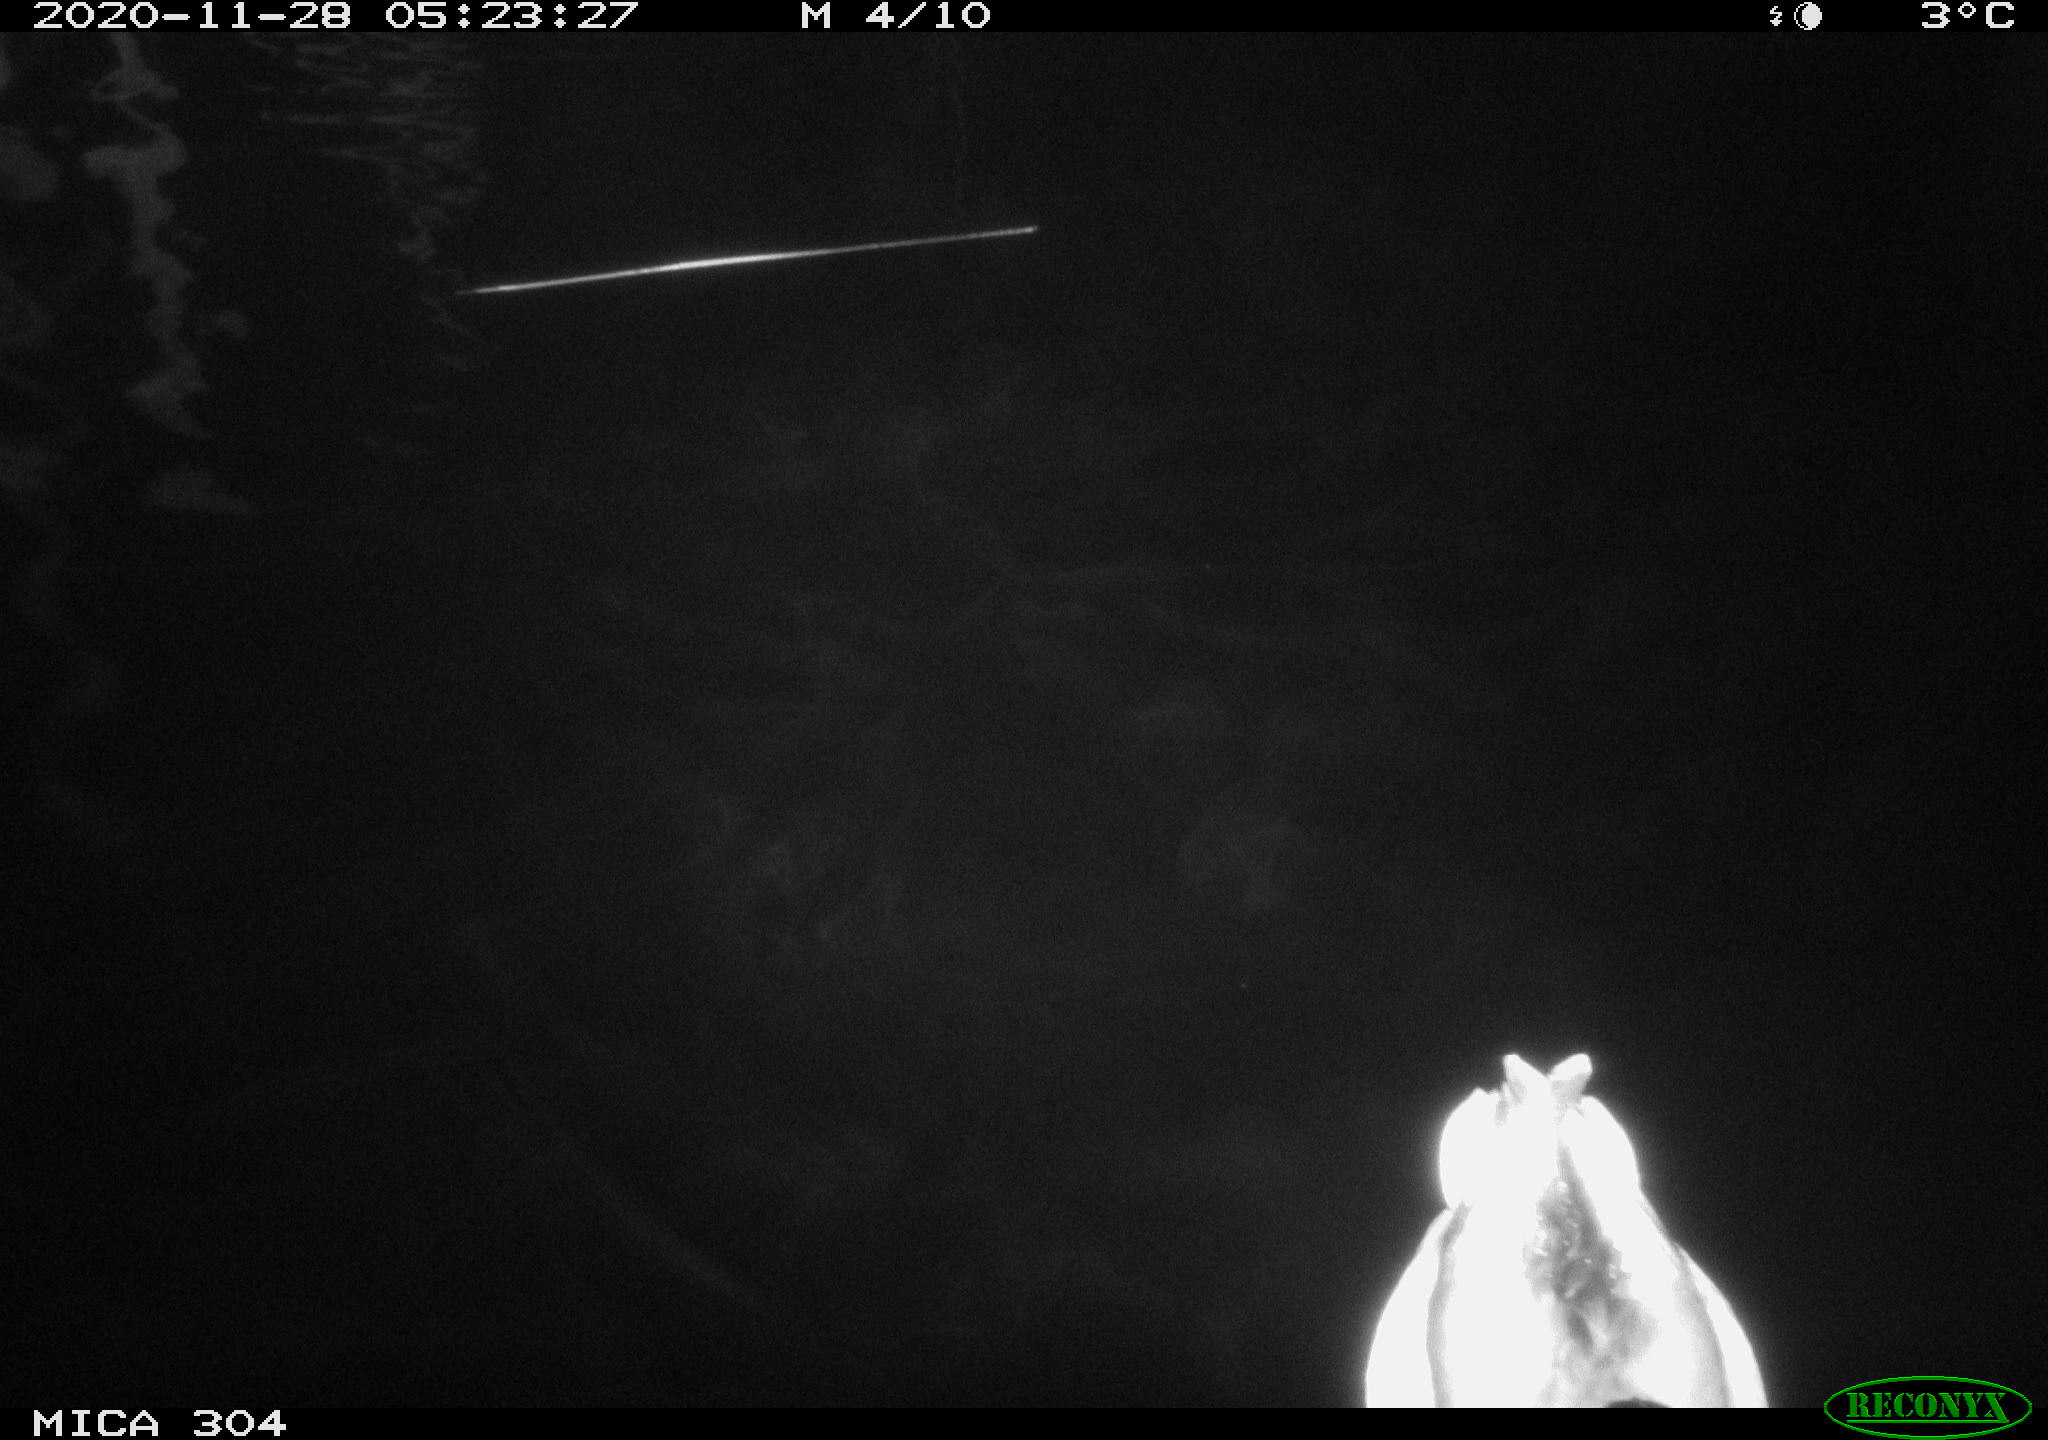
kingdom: Animalia
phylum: Chordata
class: Aves
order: Anseriformes
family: Anatidae
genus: Anas
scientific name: Anas platyrhynchos
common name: Mallard
